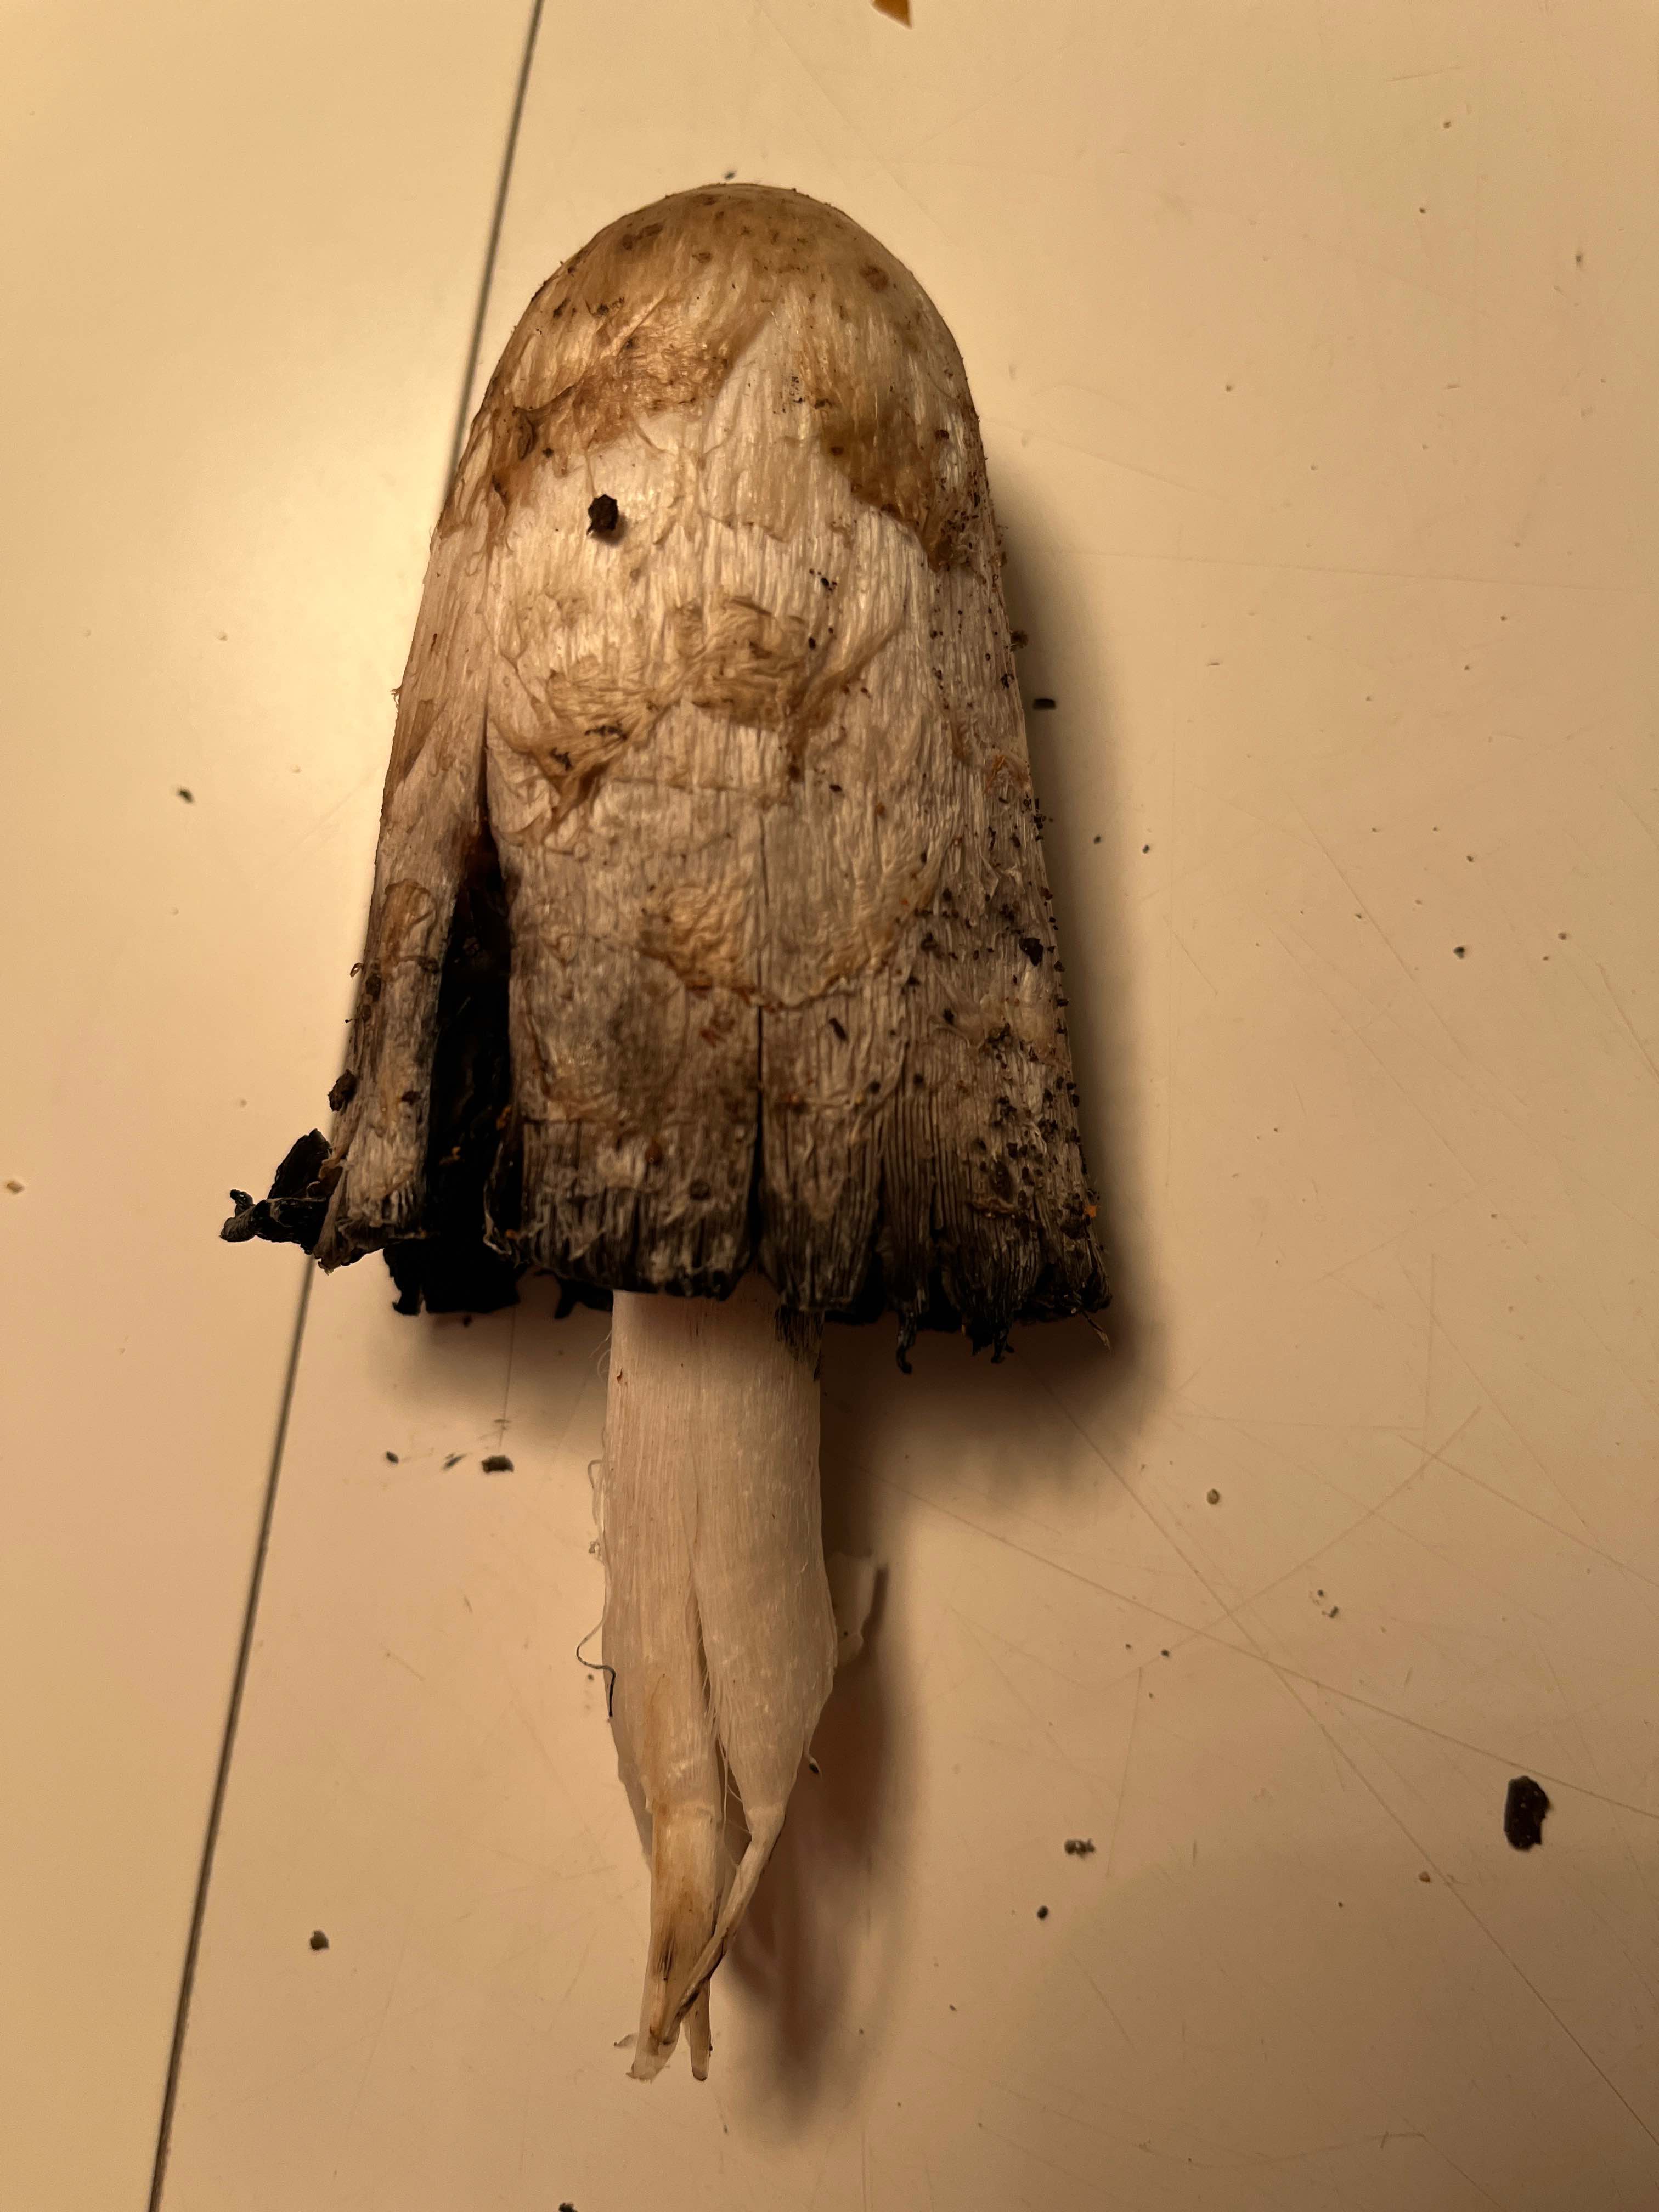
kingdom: Fungi
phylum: Basidiomycota
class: Agaricomycetes
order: Agaricales
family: Agaricaceae
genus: Coprinus
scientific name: Coprinus comatus
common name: stor parykhat
